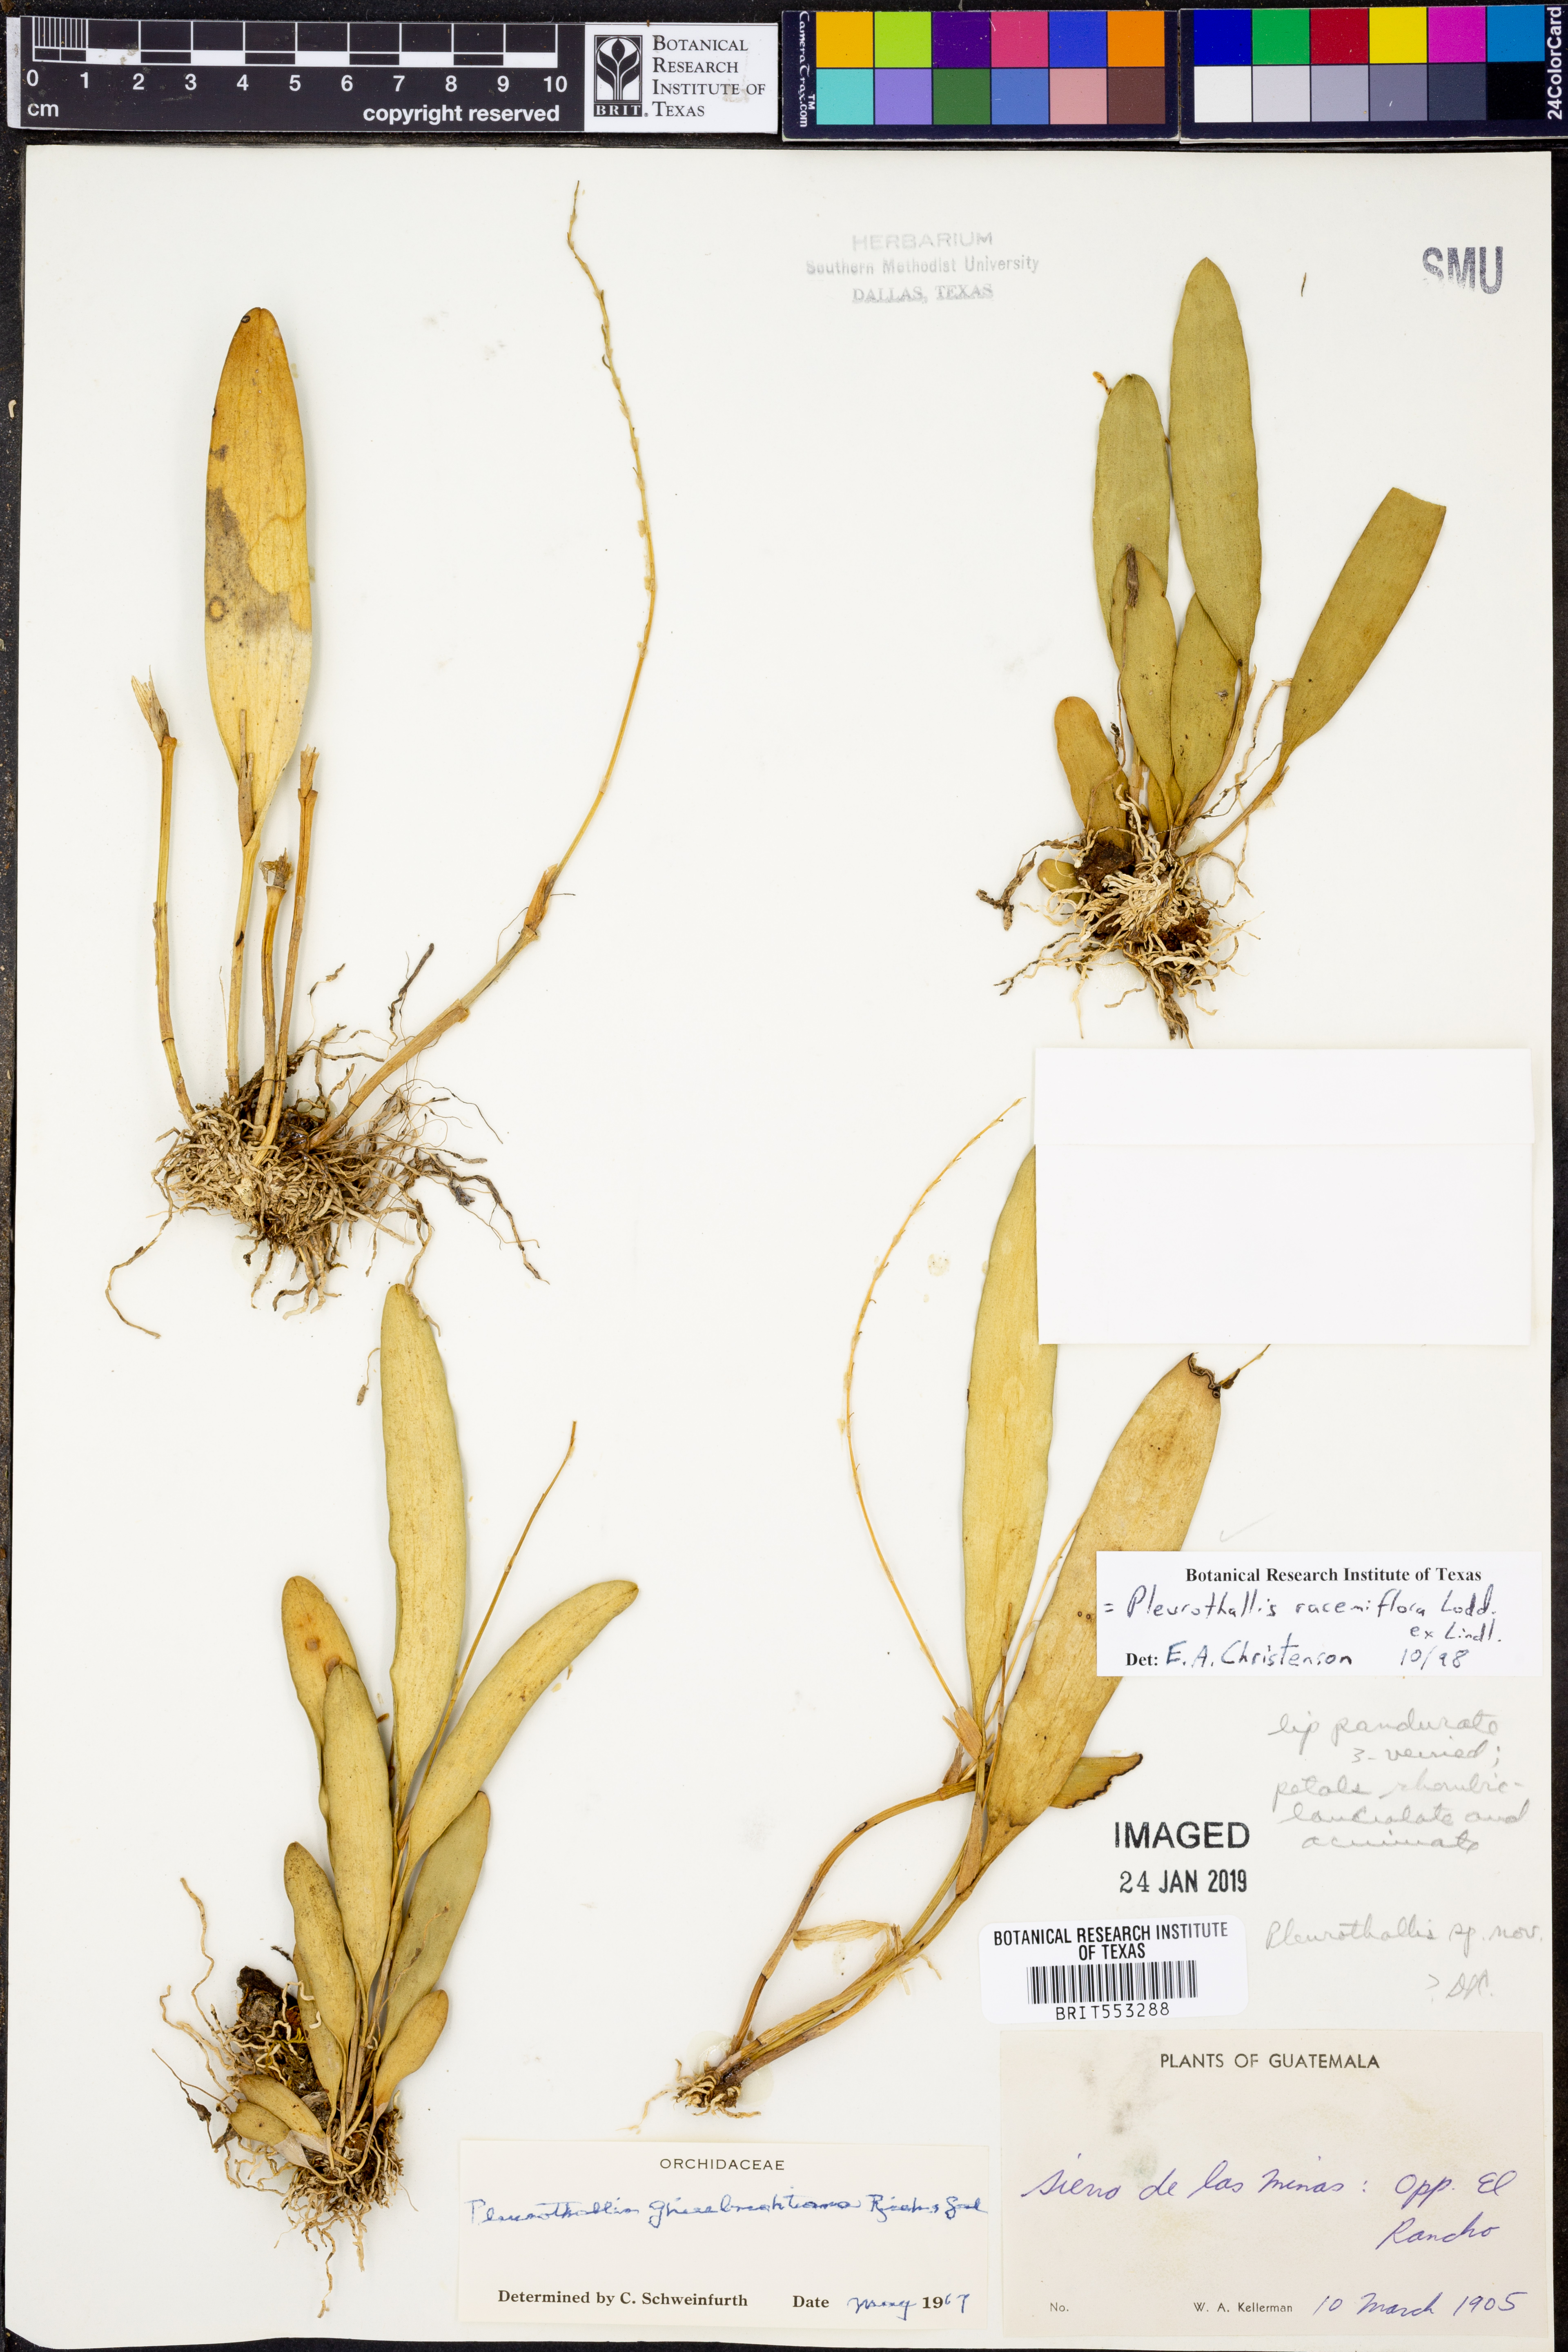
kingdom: Plantae
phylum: Tracheophyta
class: Liliopsida
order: Asparagales
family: Orchidaceae
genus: Stelis
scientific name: Stelis multirostris
